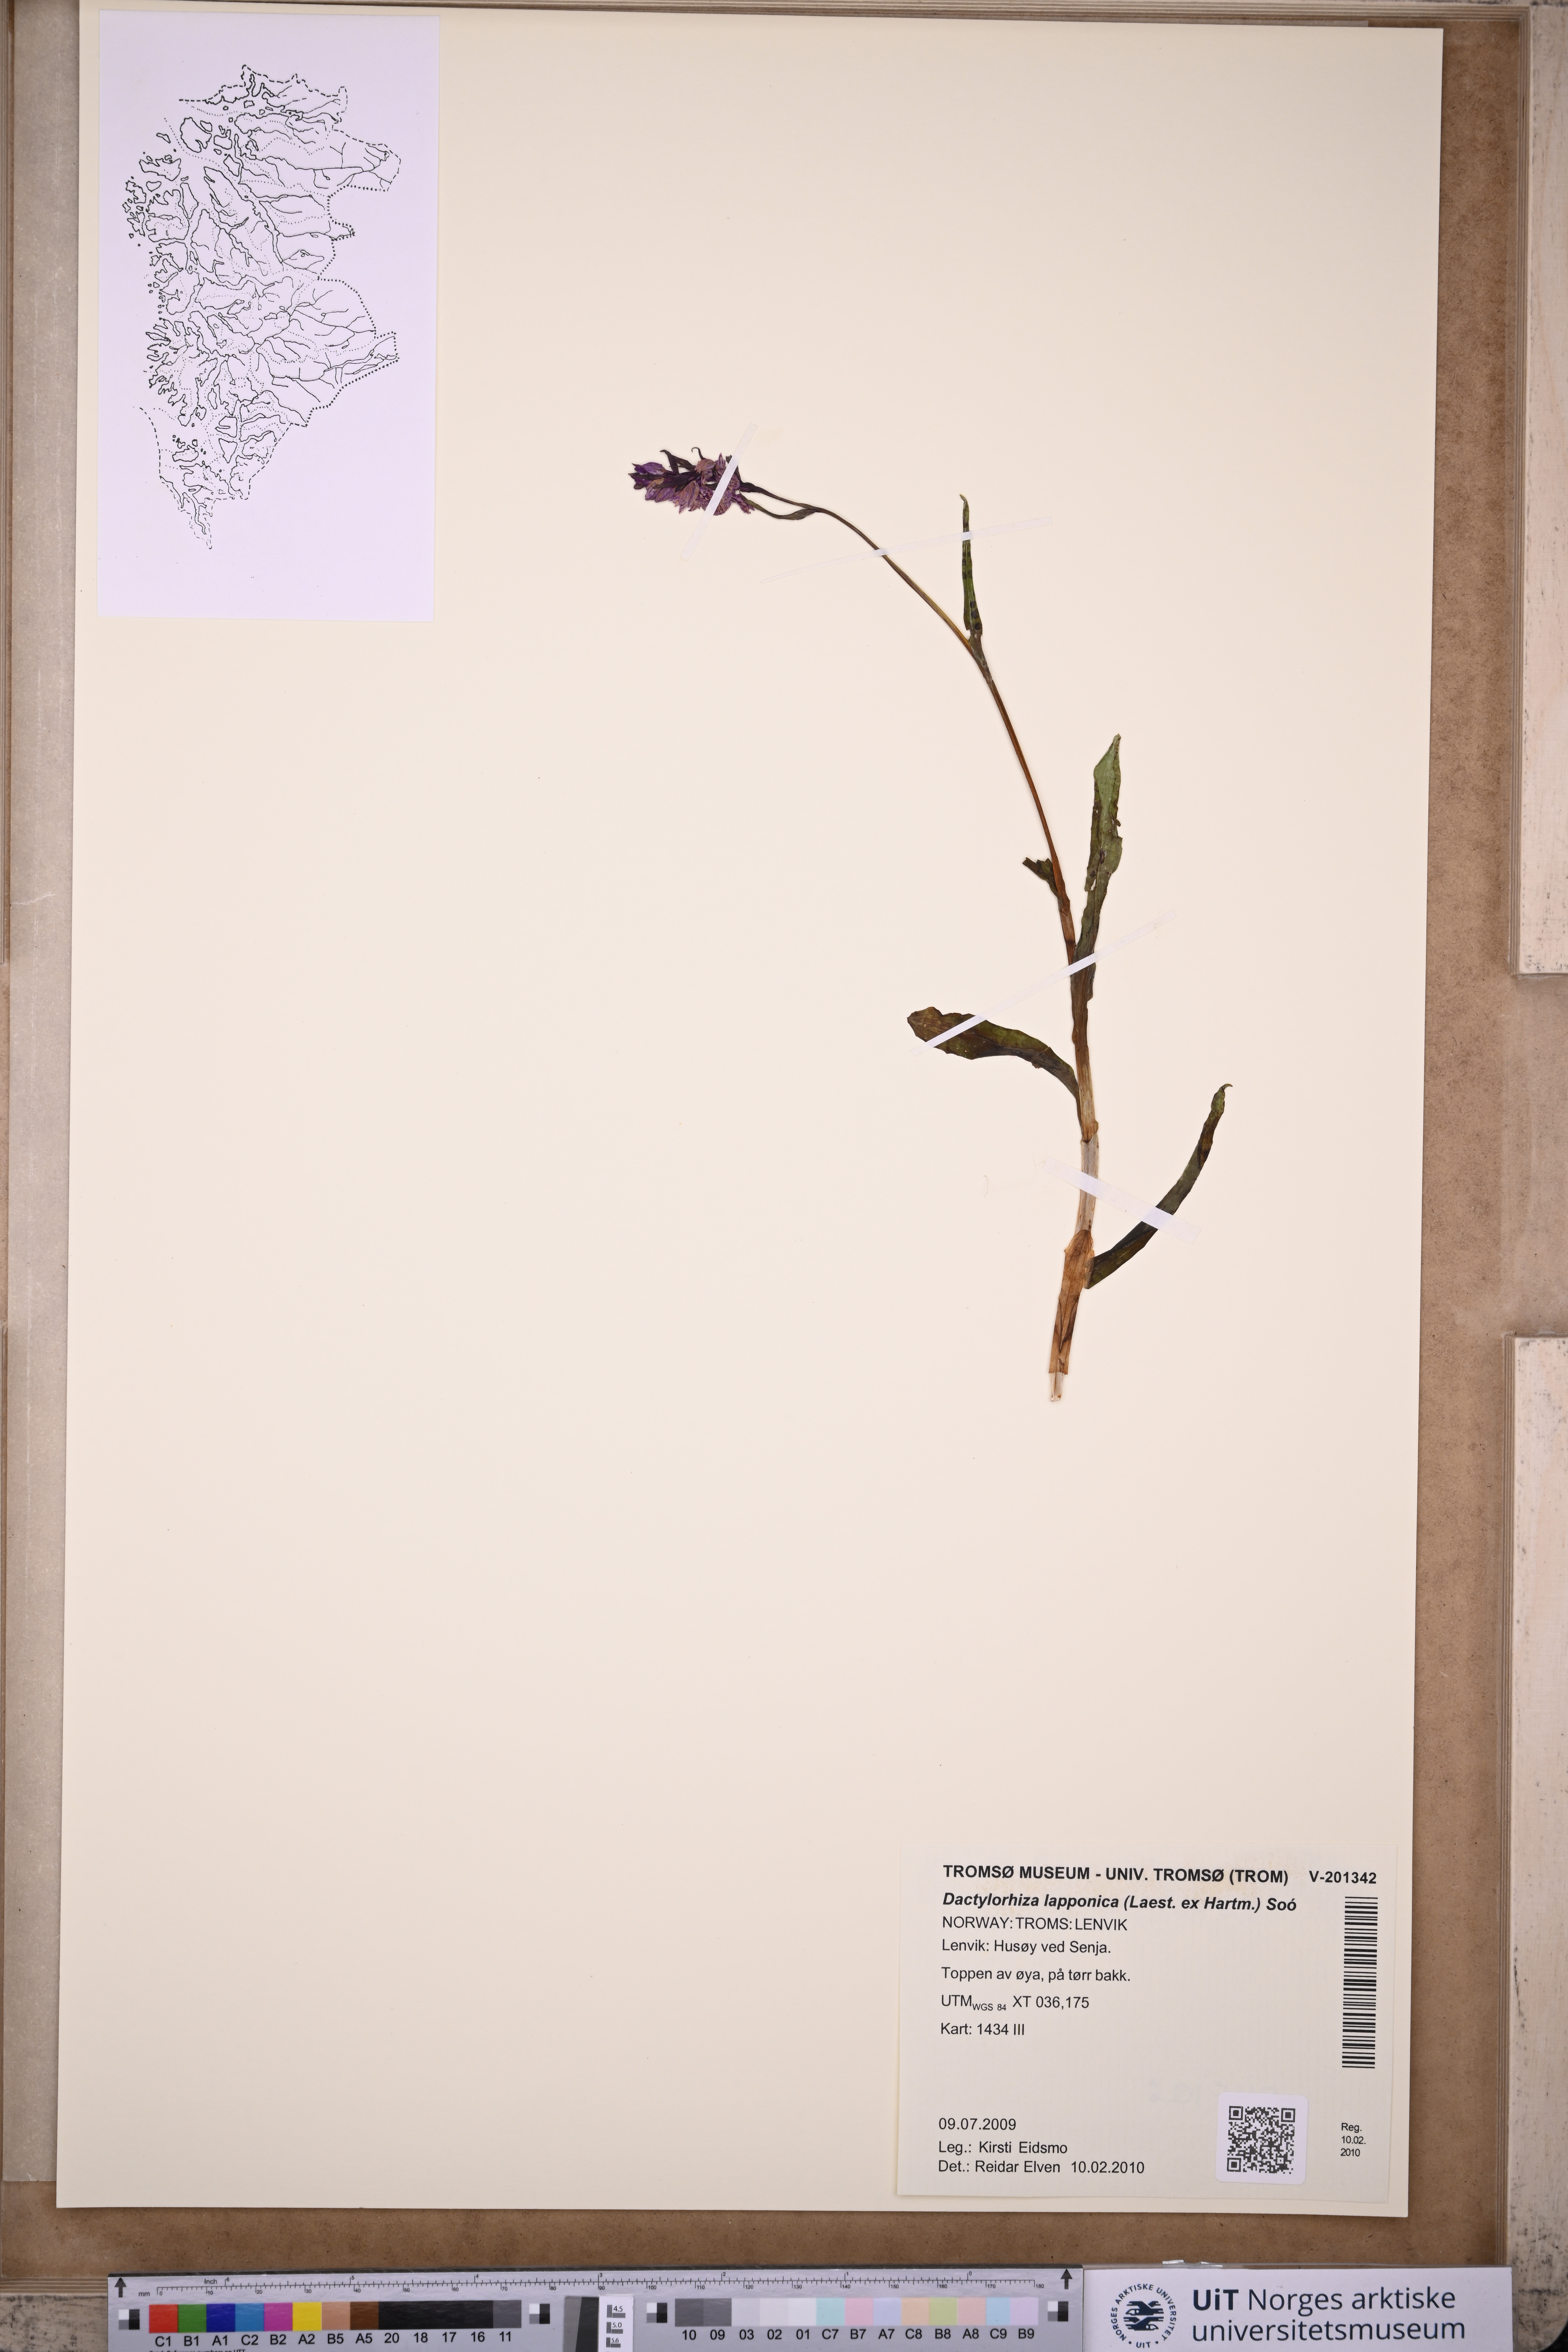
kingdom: Plantae
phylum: Tracheophyta
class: Liliopsida
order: Asparagales
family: Orchidaceae
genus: Dactylorhiza
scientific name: Dactylorhiza majalis
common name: Marsh orchid
